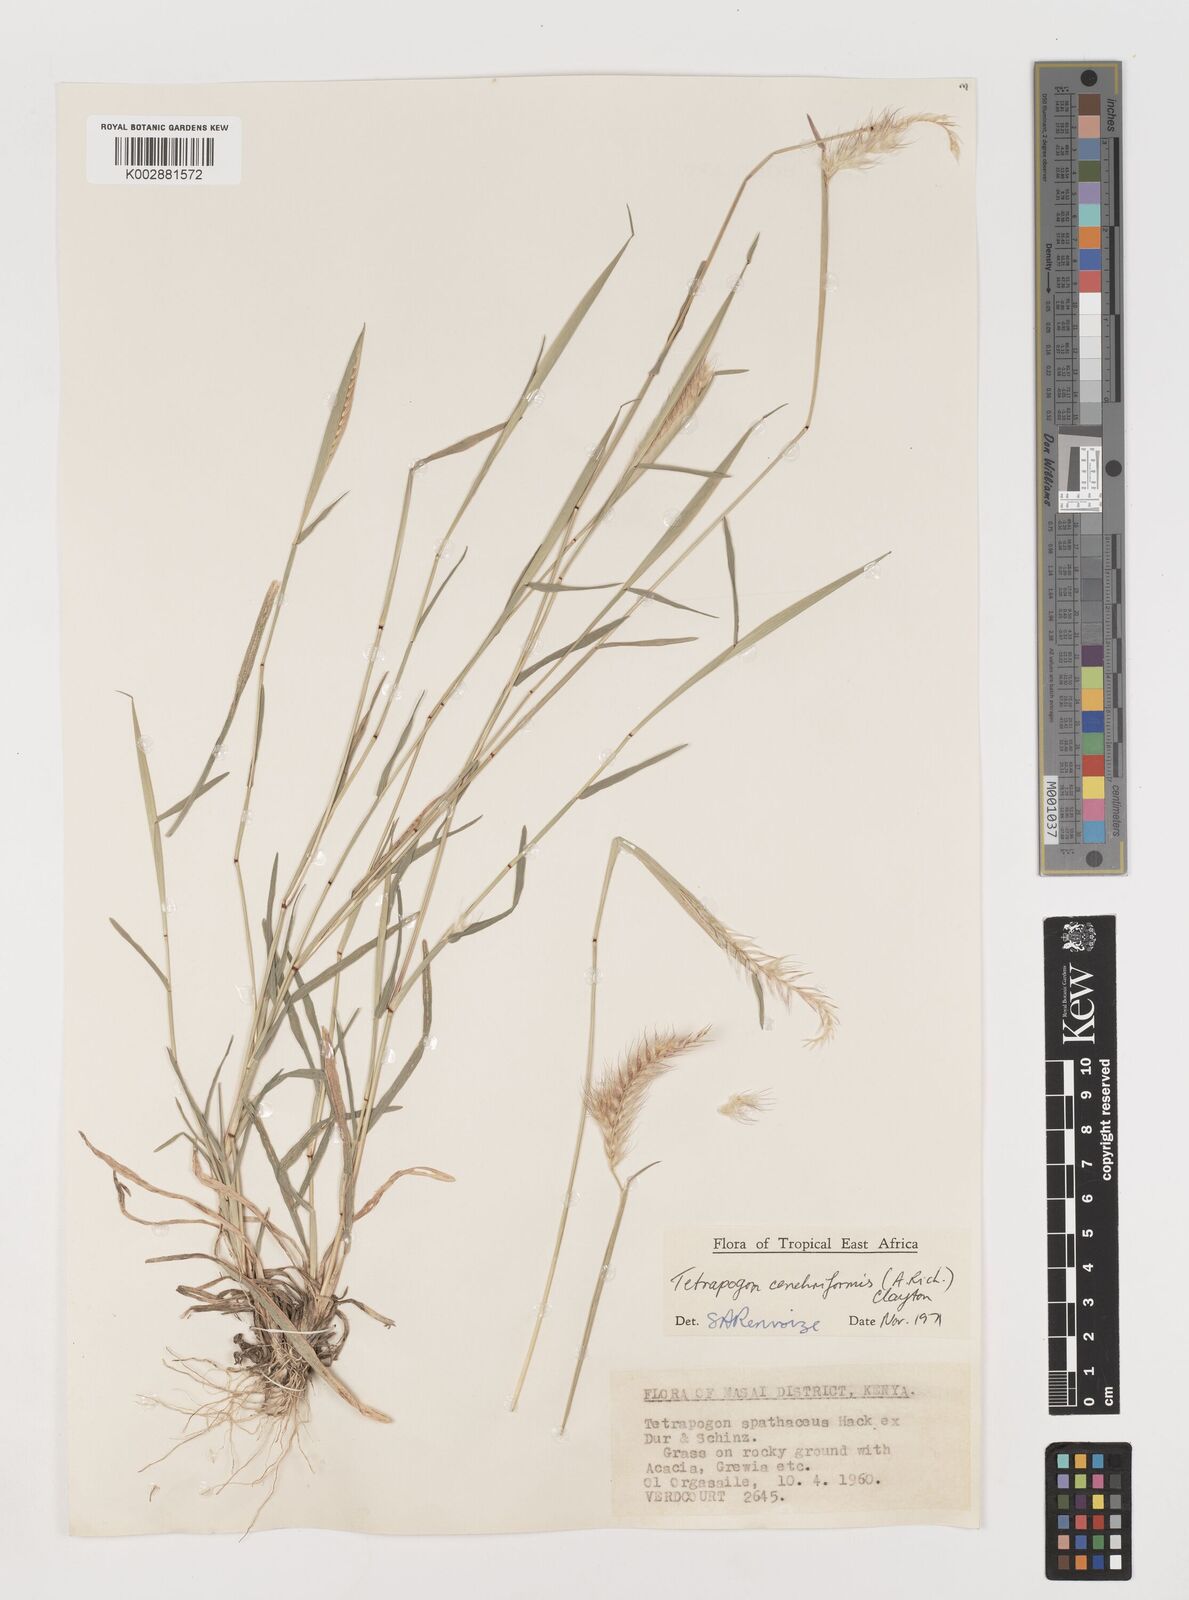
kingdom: Plantae
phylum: Tracheophyta
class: Liliopsida
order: Poales
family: Poaceae
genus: Tetrapogon
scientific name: Tetrapogon cenchriformis
